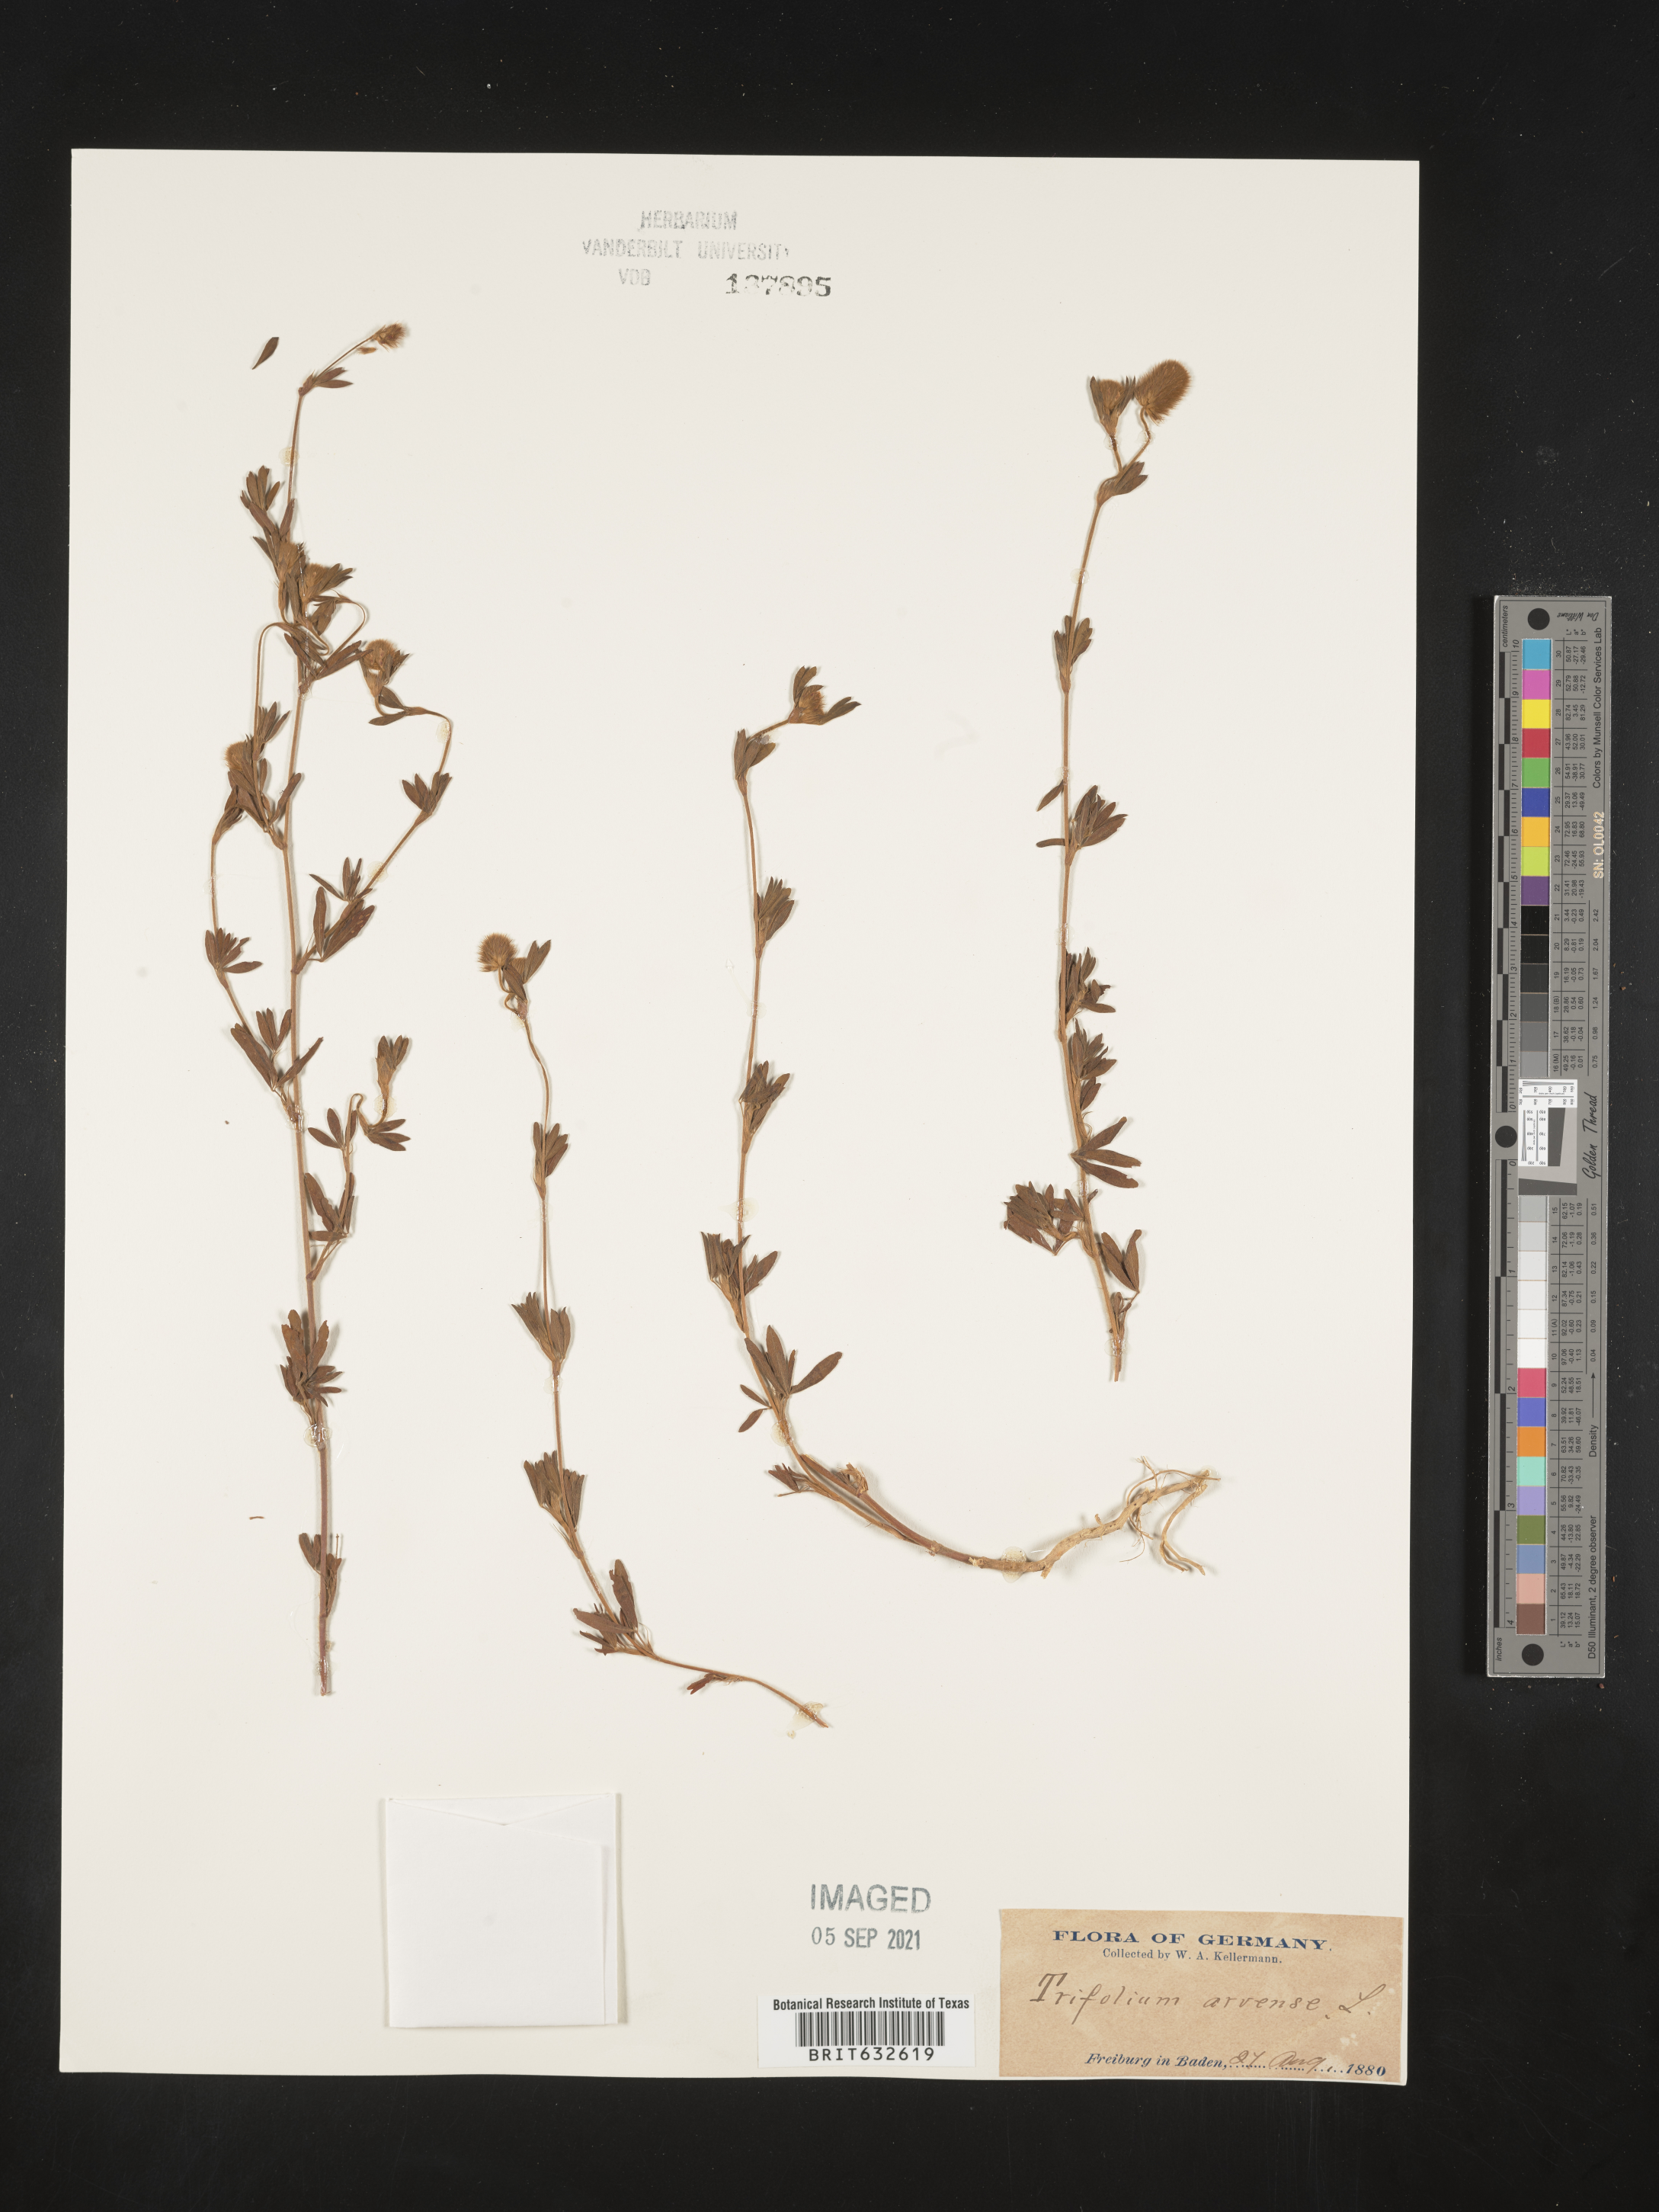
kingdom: Plantae
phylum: Tracheophyta
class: Magnoliopsida
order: Fabales
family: Fabaceae
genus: Trifolium
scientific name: Trifolium
